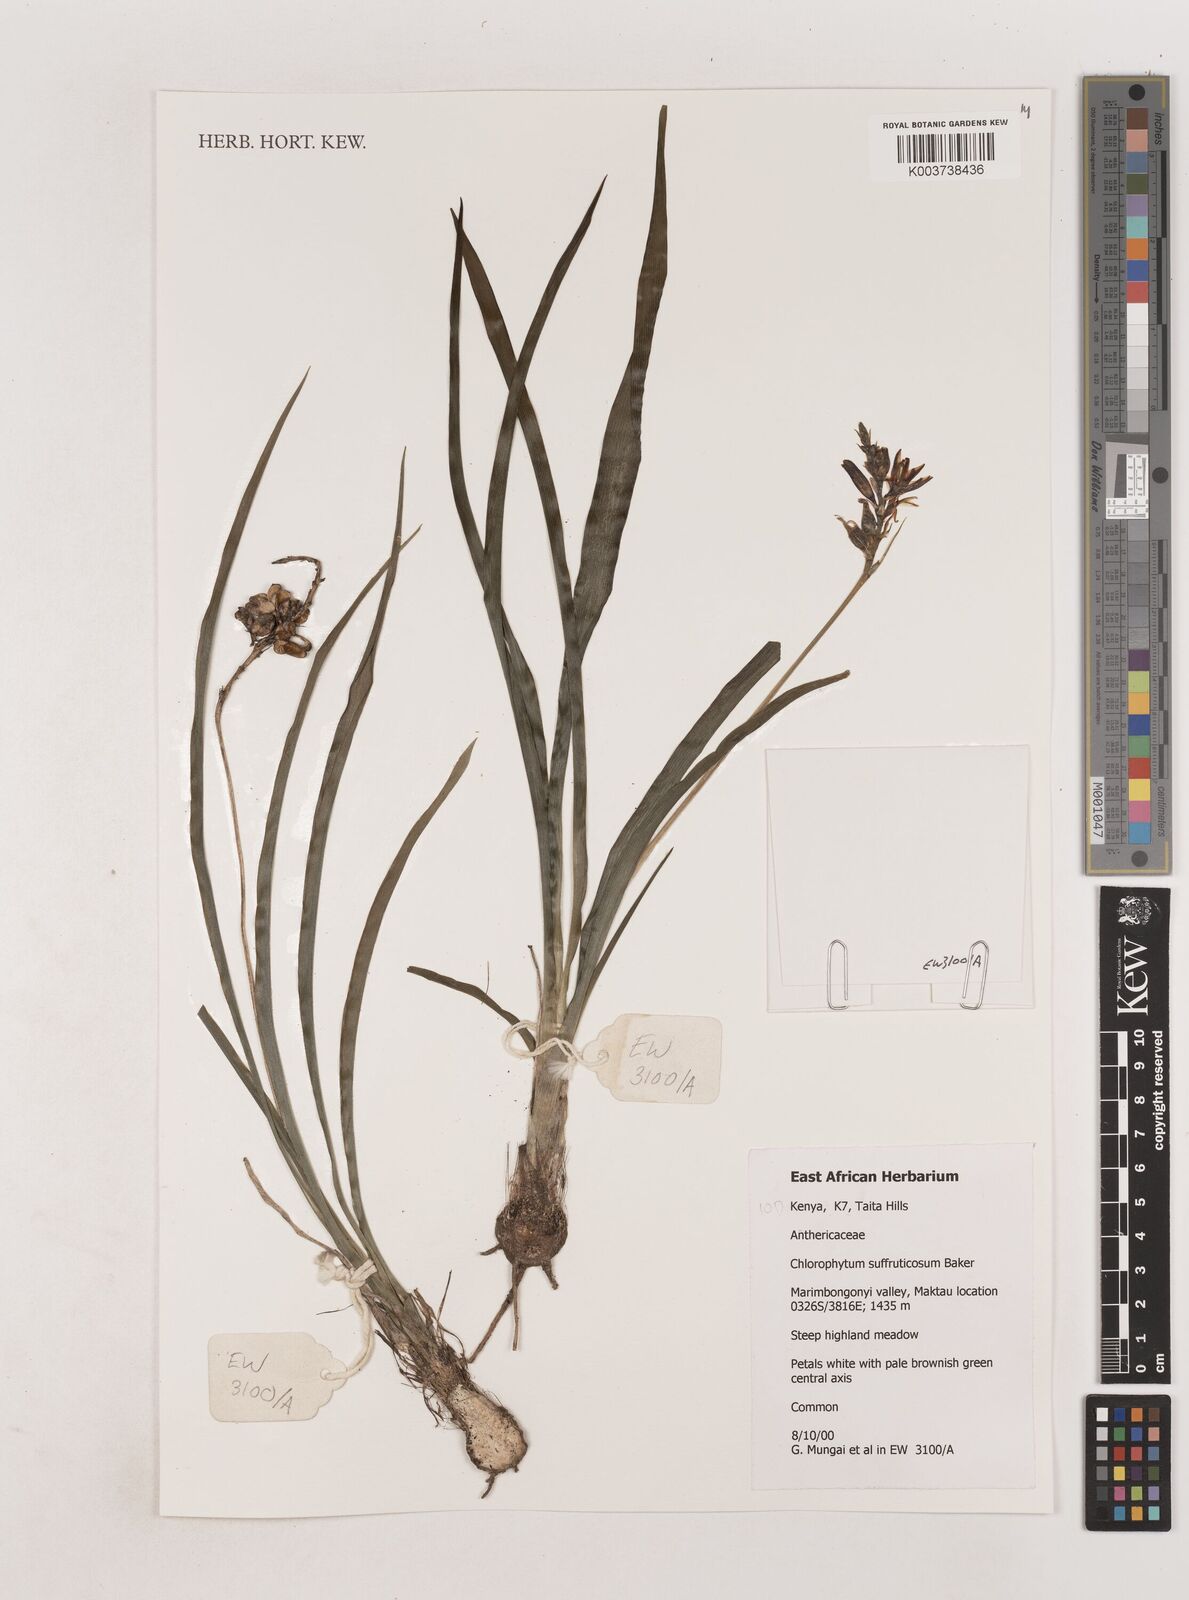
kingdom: Plantae
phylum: Tracheophyta
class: Liliopsida
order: Asparagales
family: Asparagaceae
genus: Chlorophytum
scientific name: Chlorophytum suffruticosum
